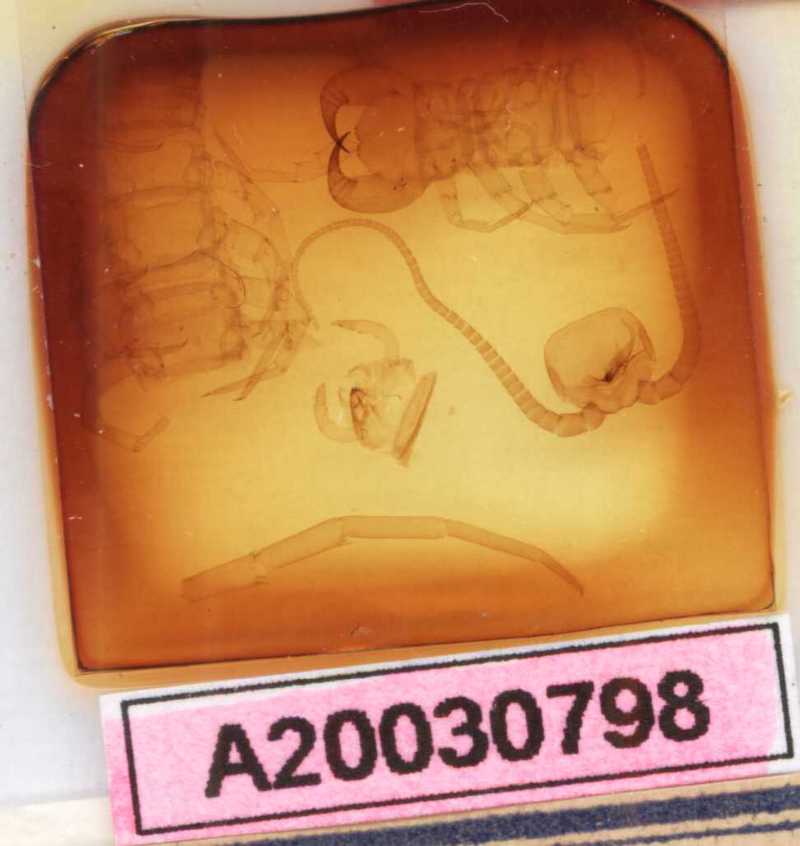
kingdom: Animalia
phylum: Arthropoda
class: Chilopoda
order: Lithobiomorpha
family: Lithobiidae
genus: Lithobius
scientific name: Lithobius viriatus
